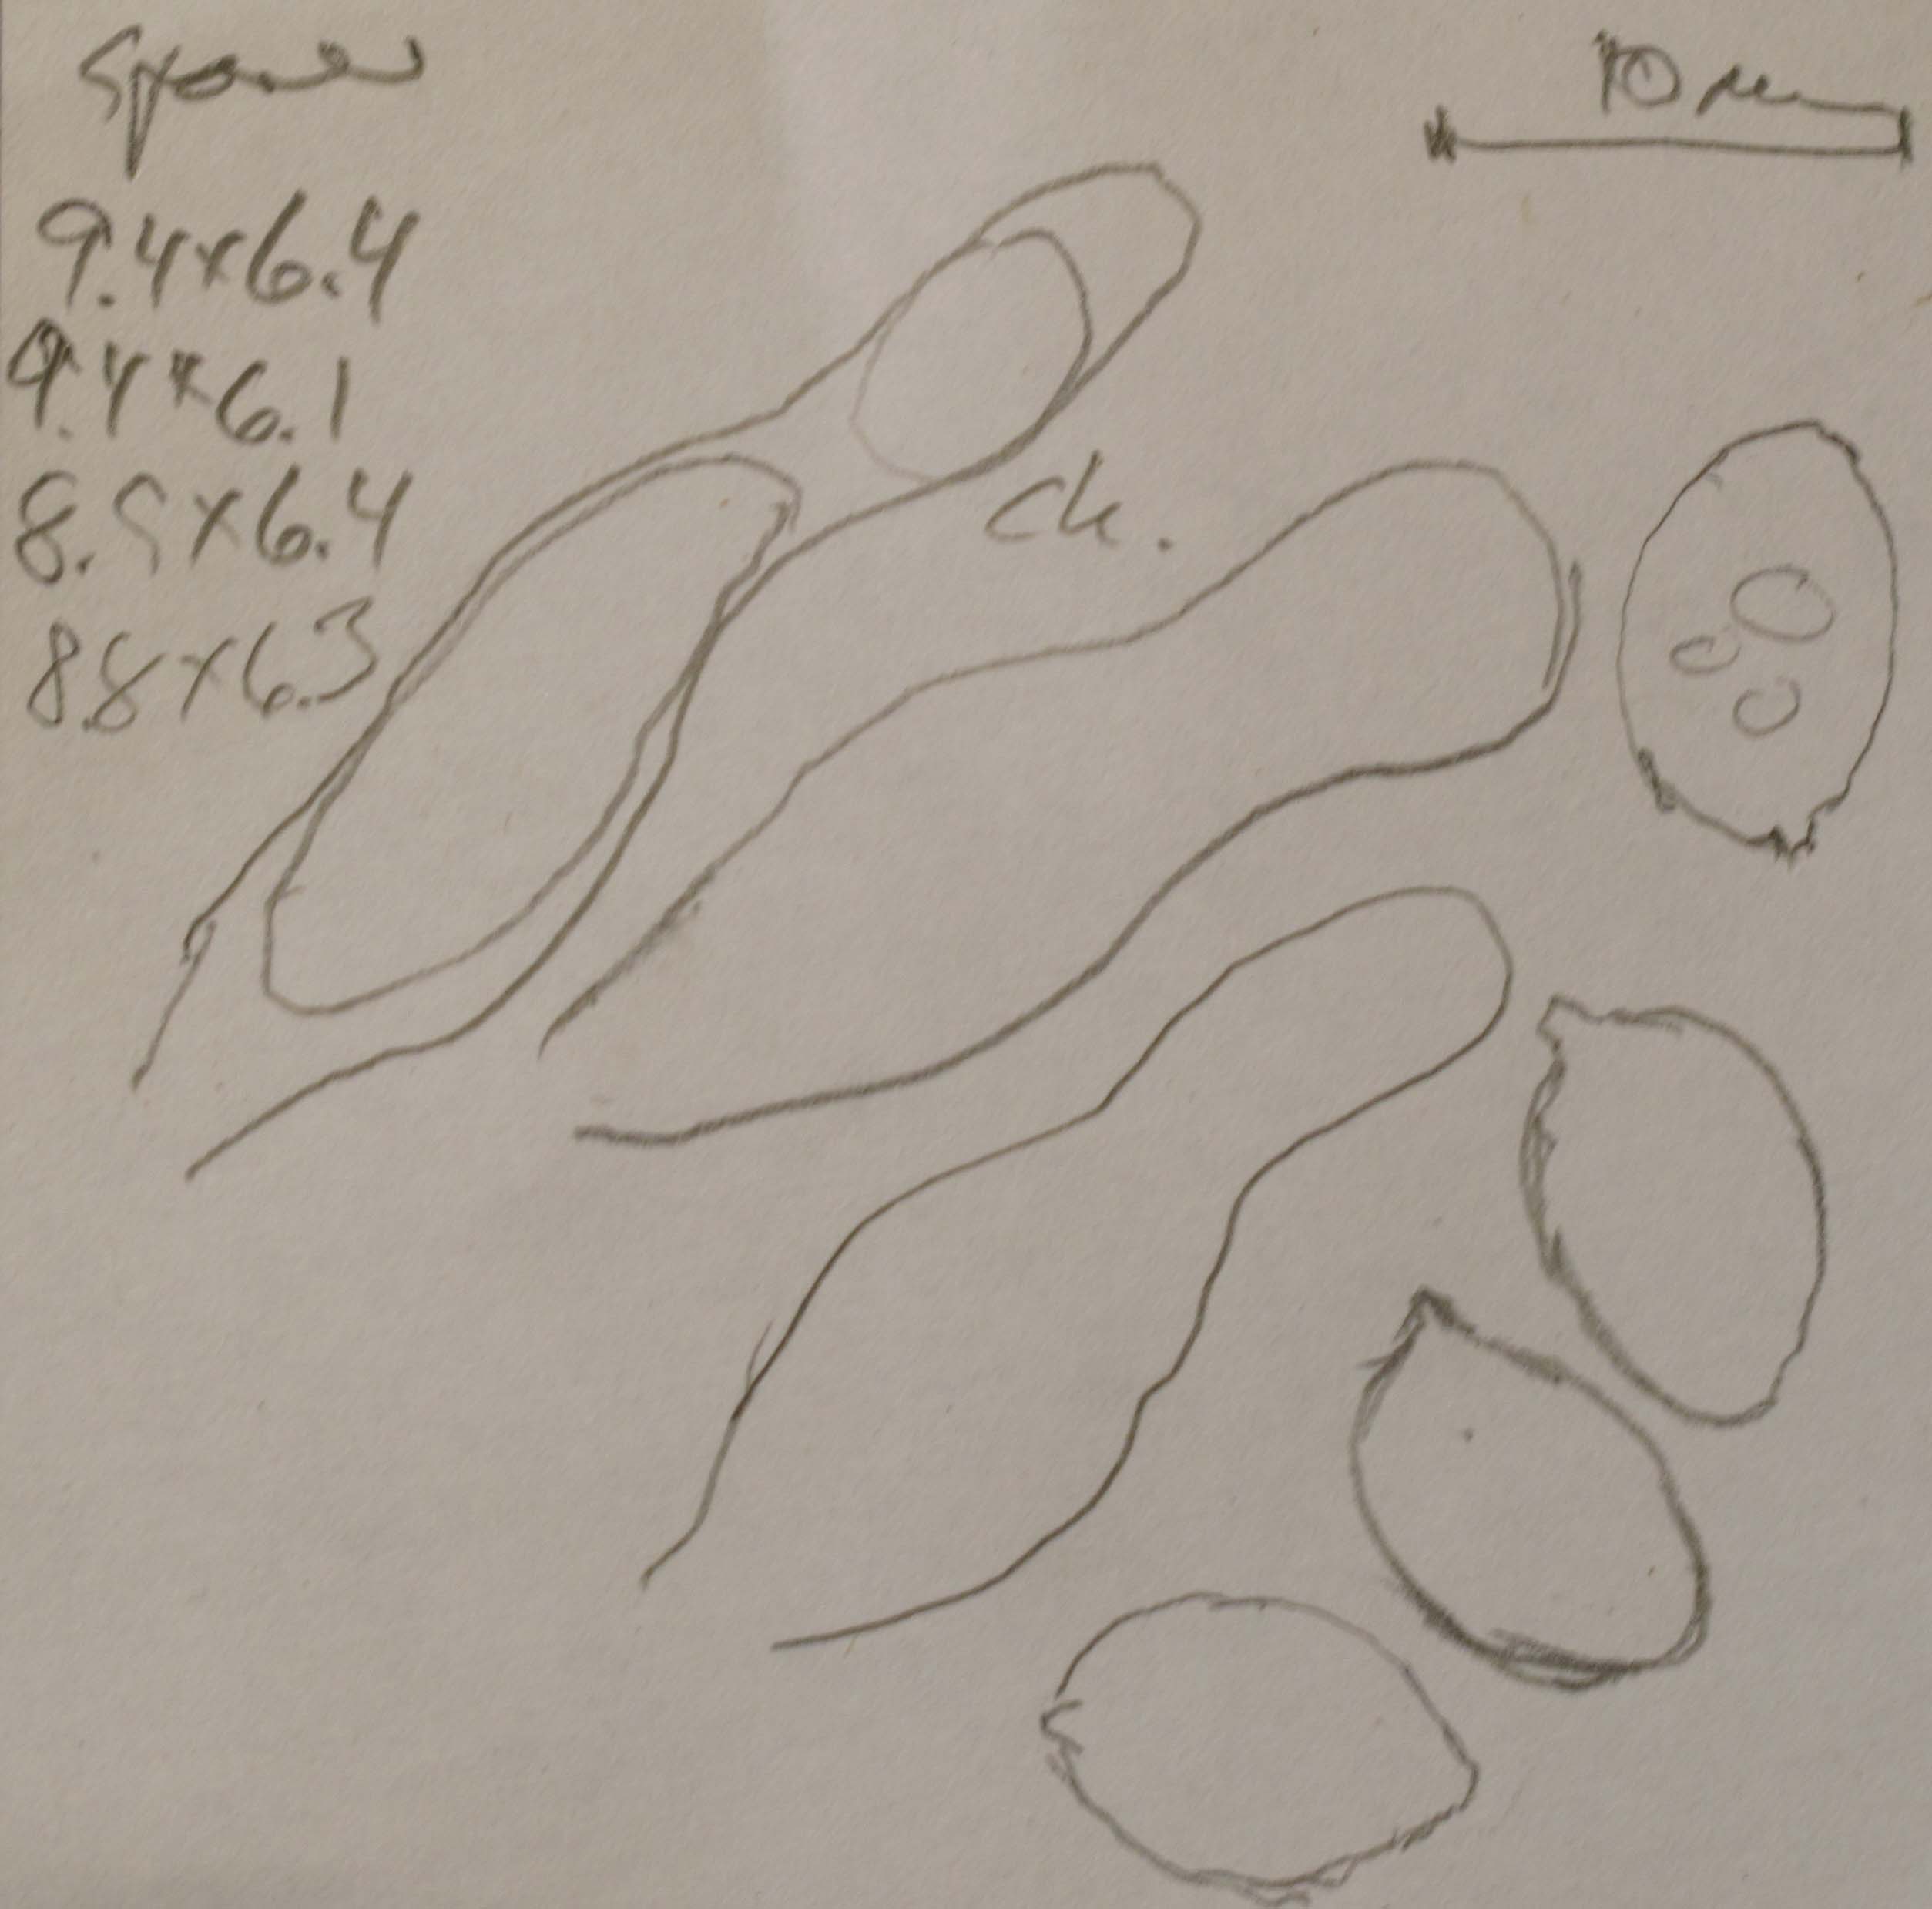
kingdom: Fungi
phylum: Basidiomycota
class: Agaricomycetes
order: Agaricales
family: Hymenogastraceae
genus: Galerina
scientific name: Galerina paludosa
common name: mose-hjelmhat
